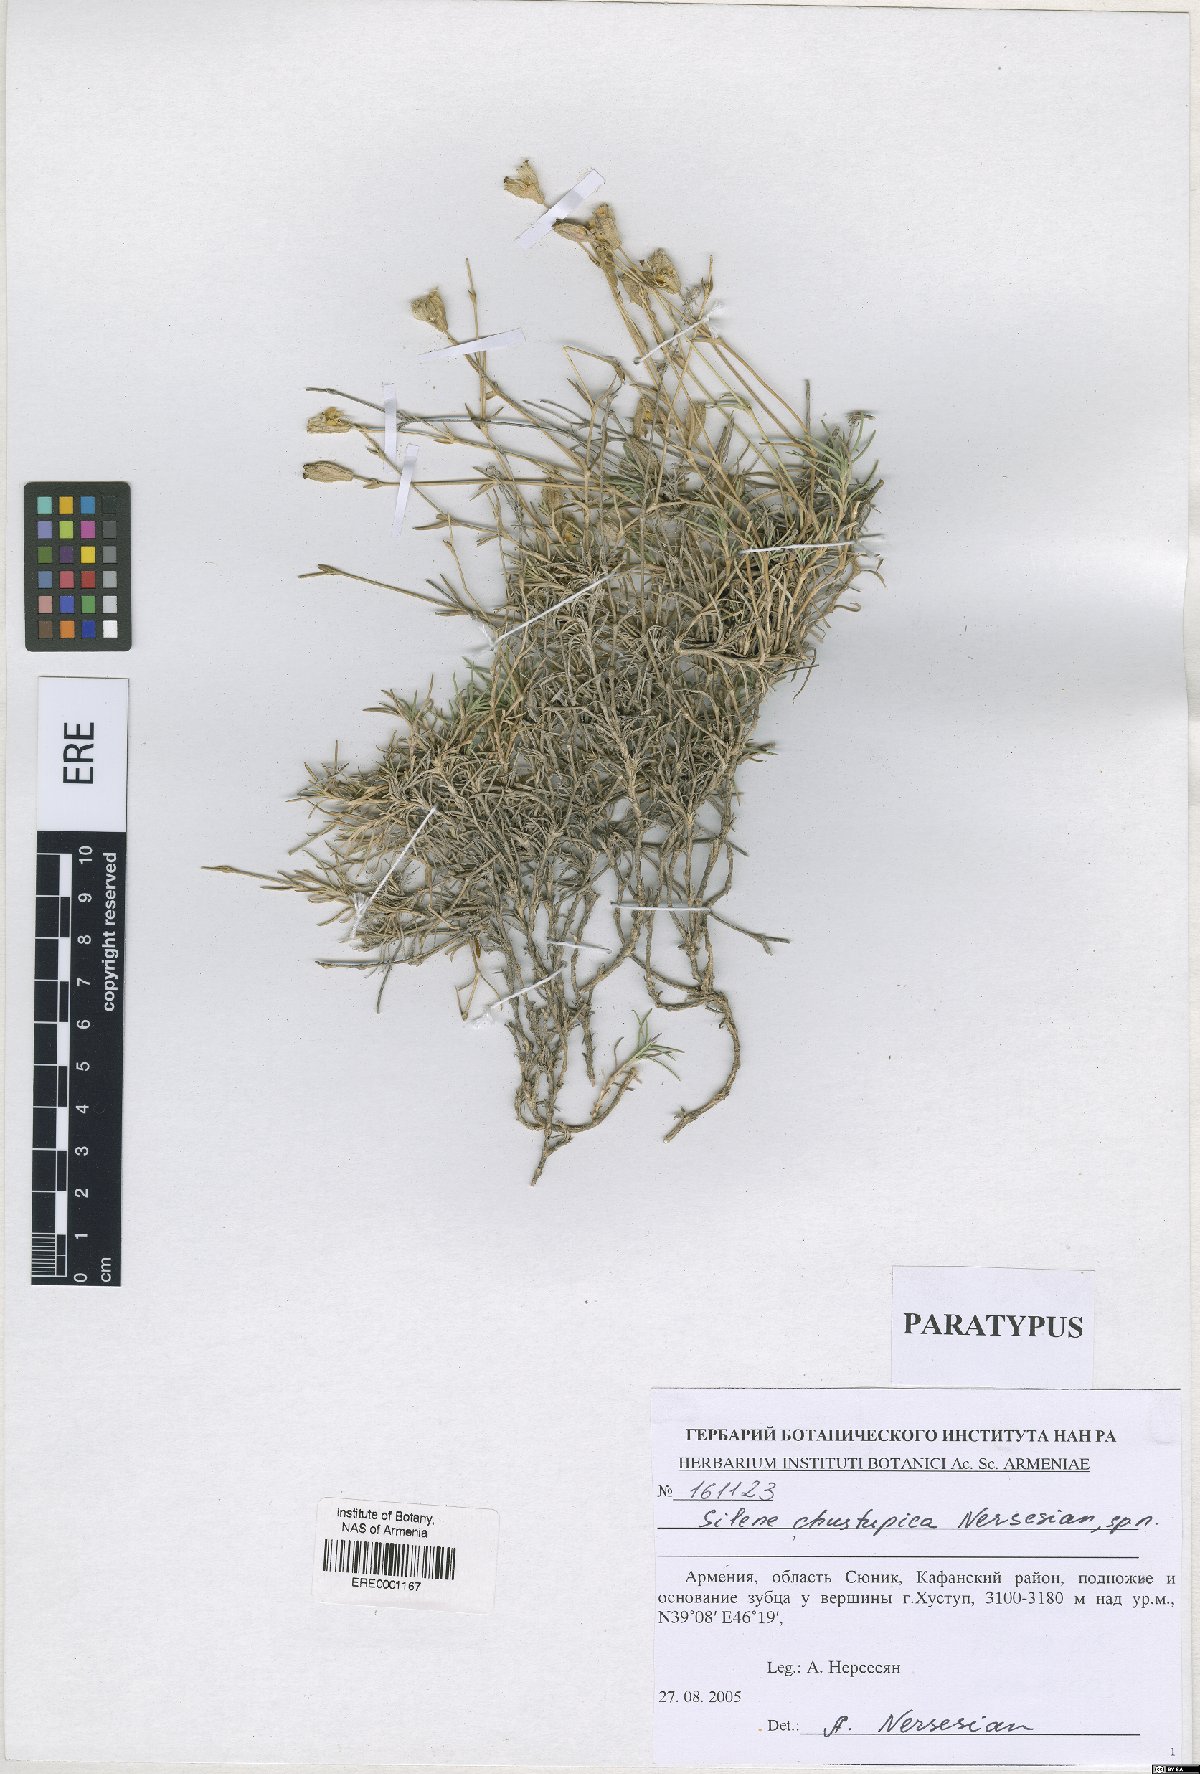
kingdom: Plantae
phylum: Tracheophyta
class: Magnoliopsida
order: Caryophyllales
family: Caryophyllaceae
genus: Silene
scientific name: Silene pungens
